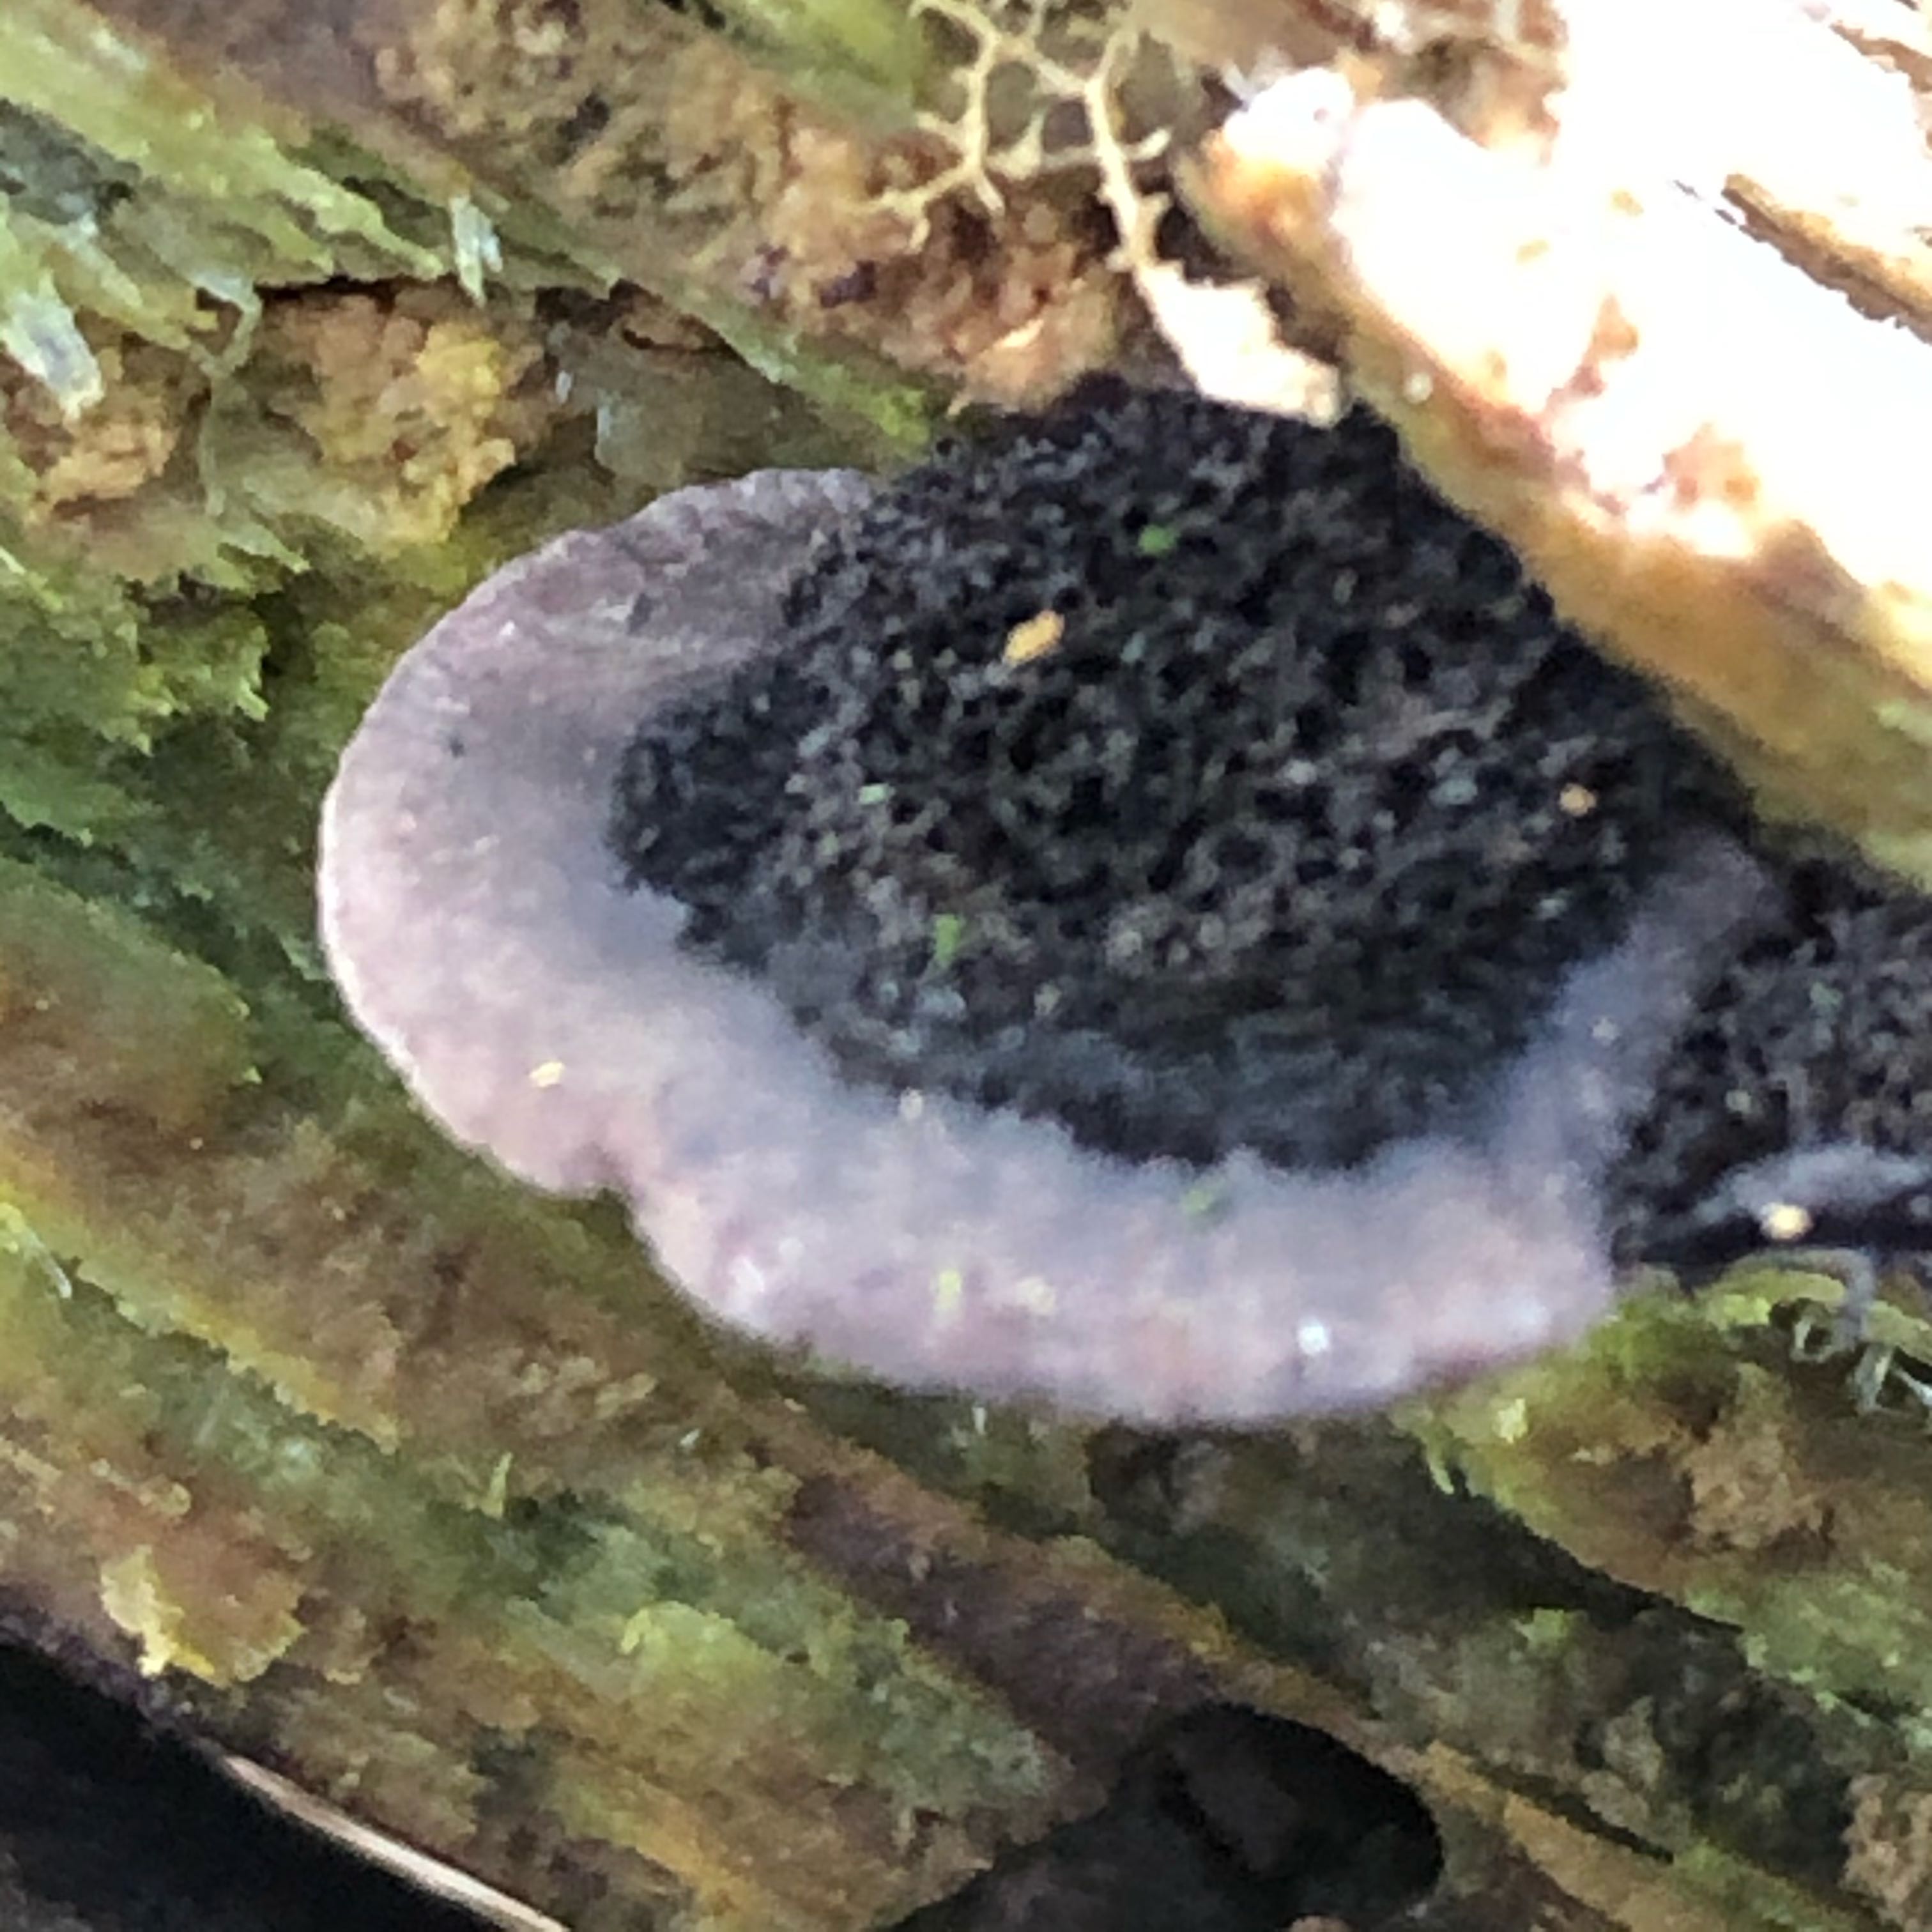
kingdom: Fungi
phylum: Basidiomycota
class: Agaricomycetes
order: Agaricales
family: Pleurotaceae
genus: Resupinatus
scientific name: Resupinatus trichotis
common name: mørkfiltet barkhat
